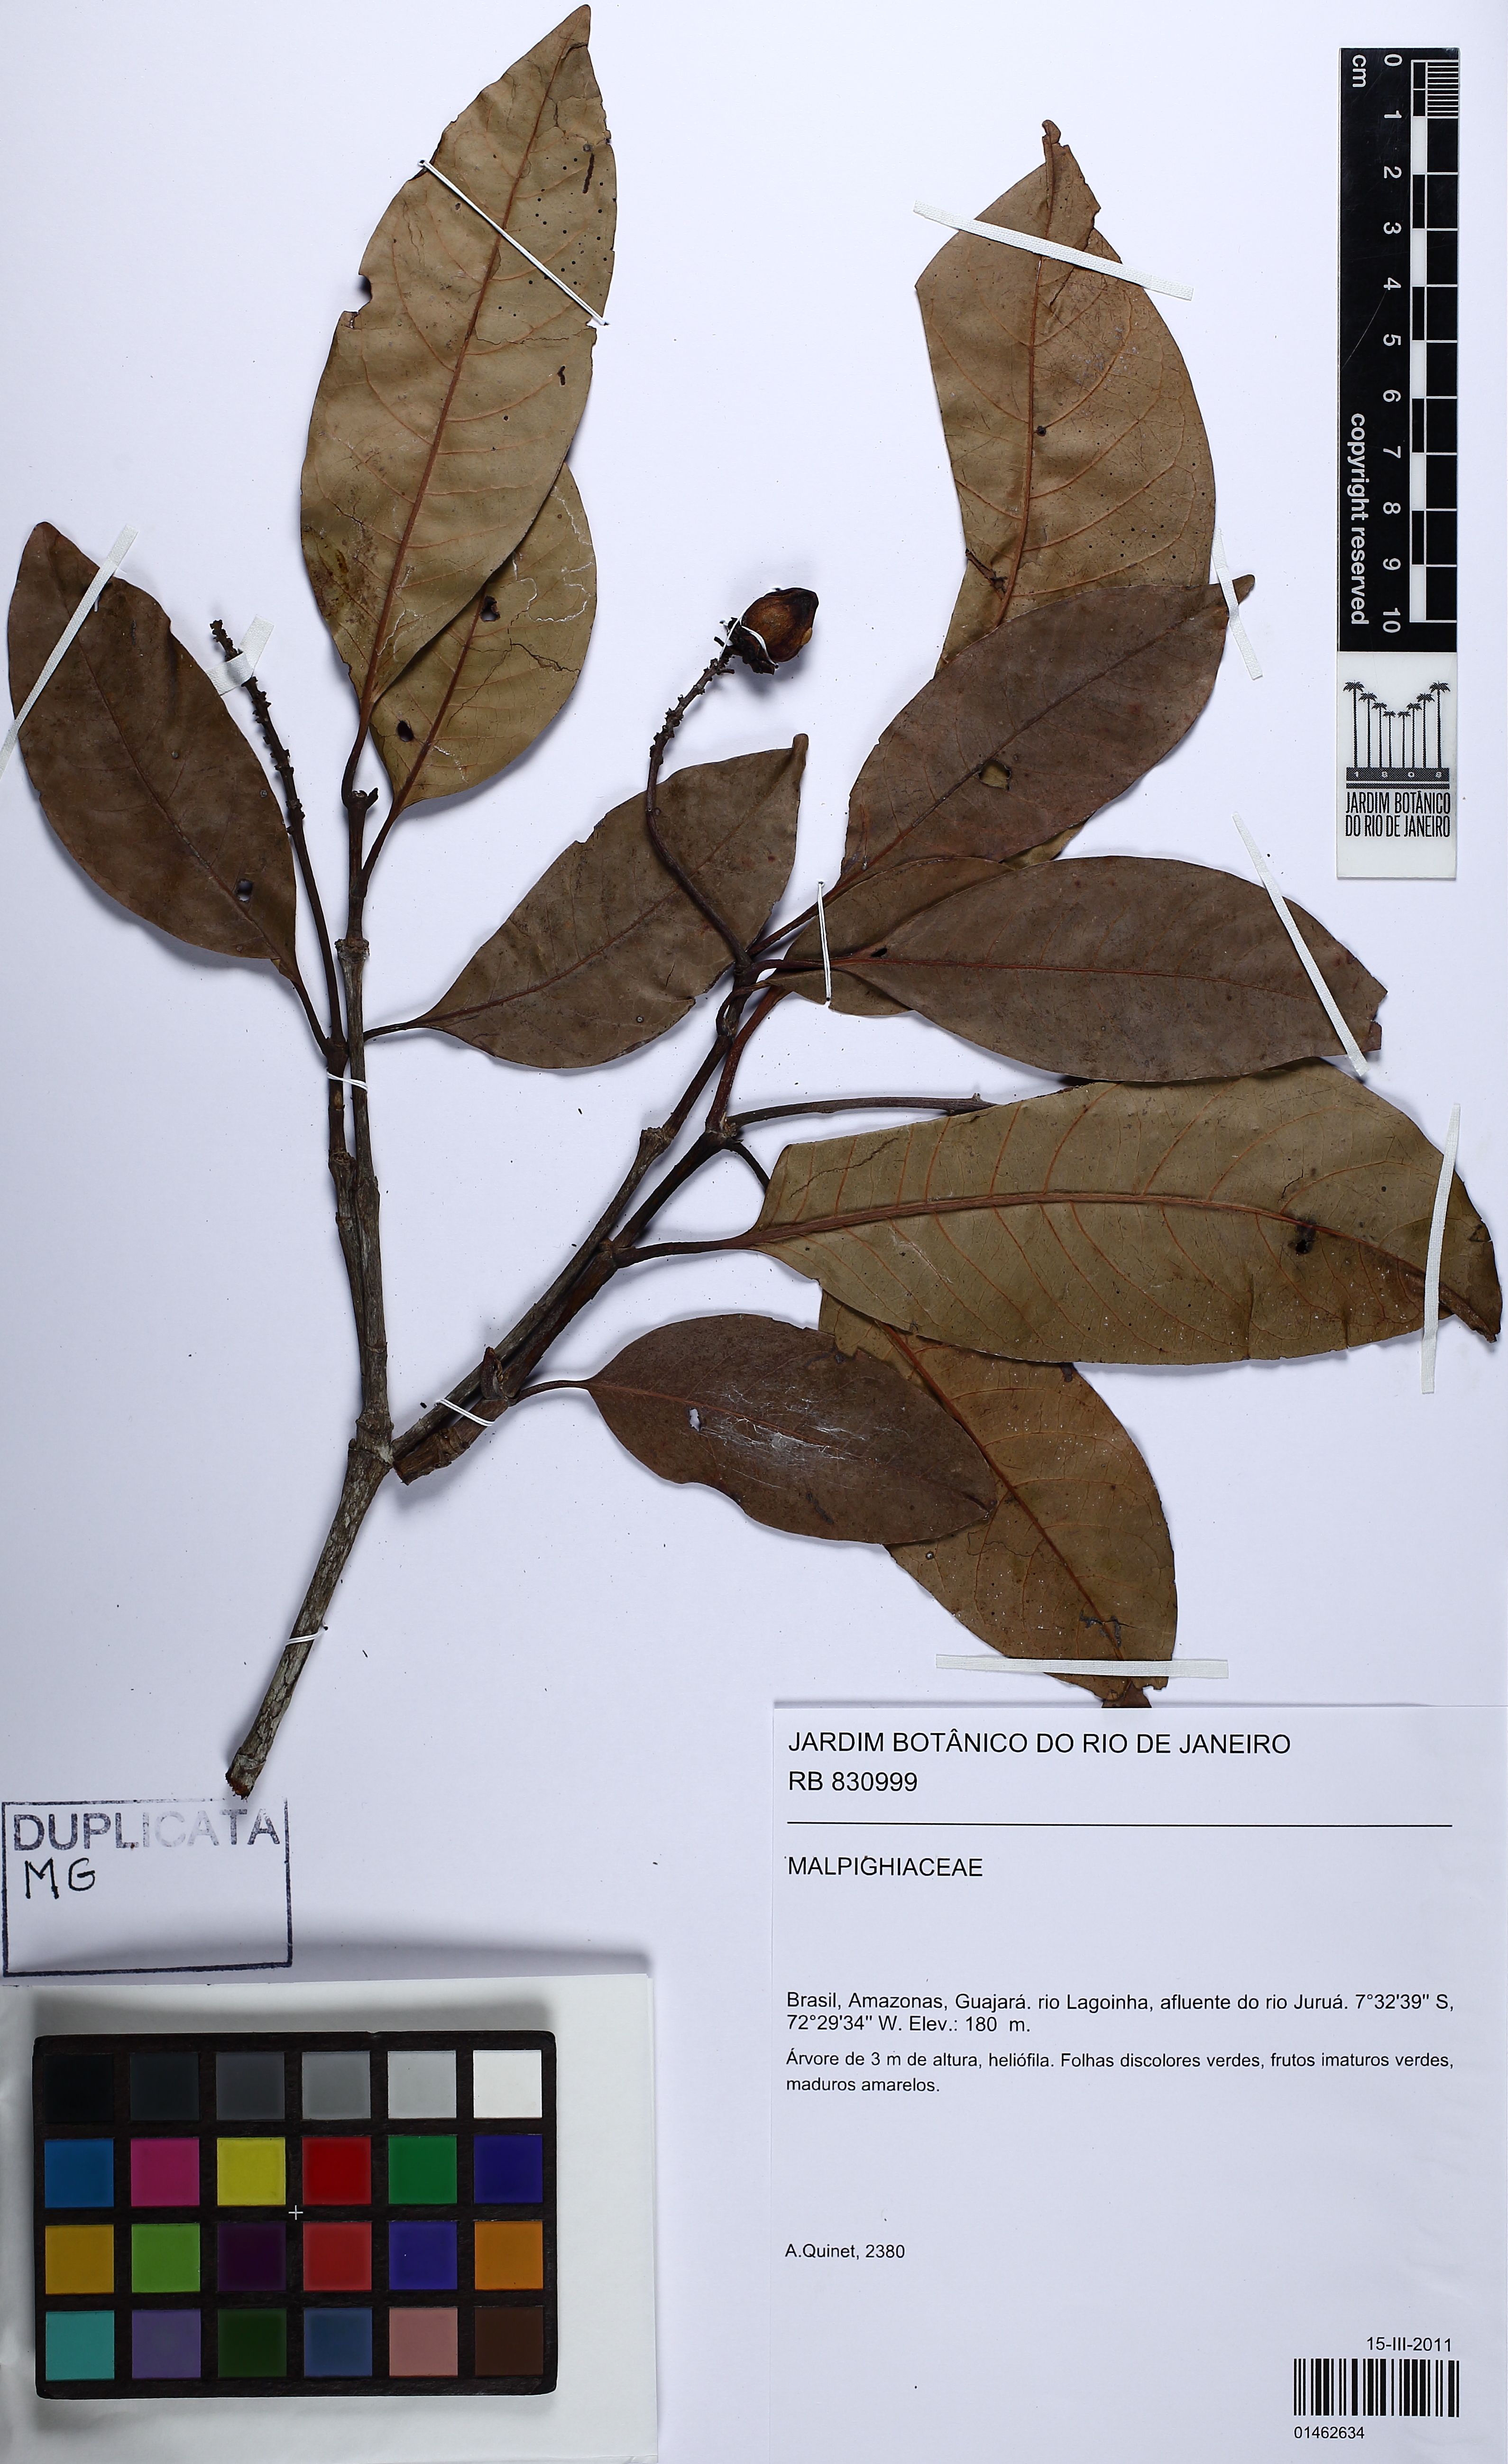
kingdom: Plantae
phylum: Tracheophyta
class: Magnoliopsida
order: Malpighiales
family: Malpighiaceae
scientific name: Malpighiaceae
